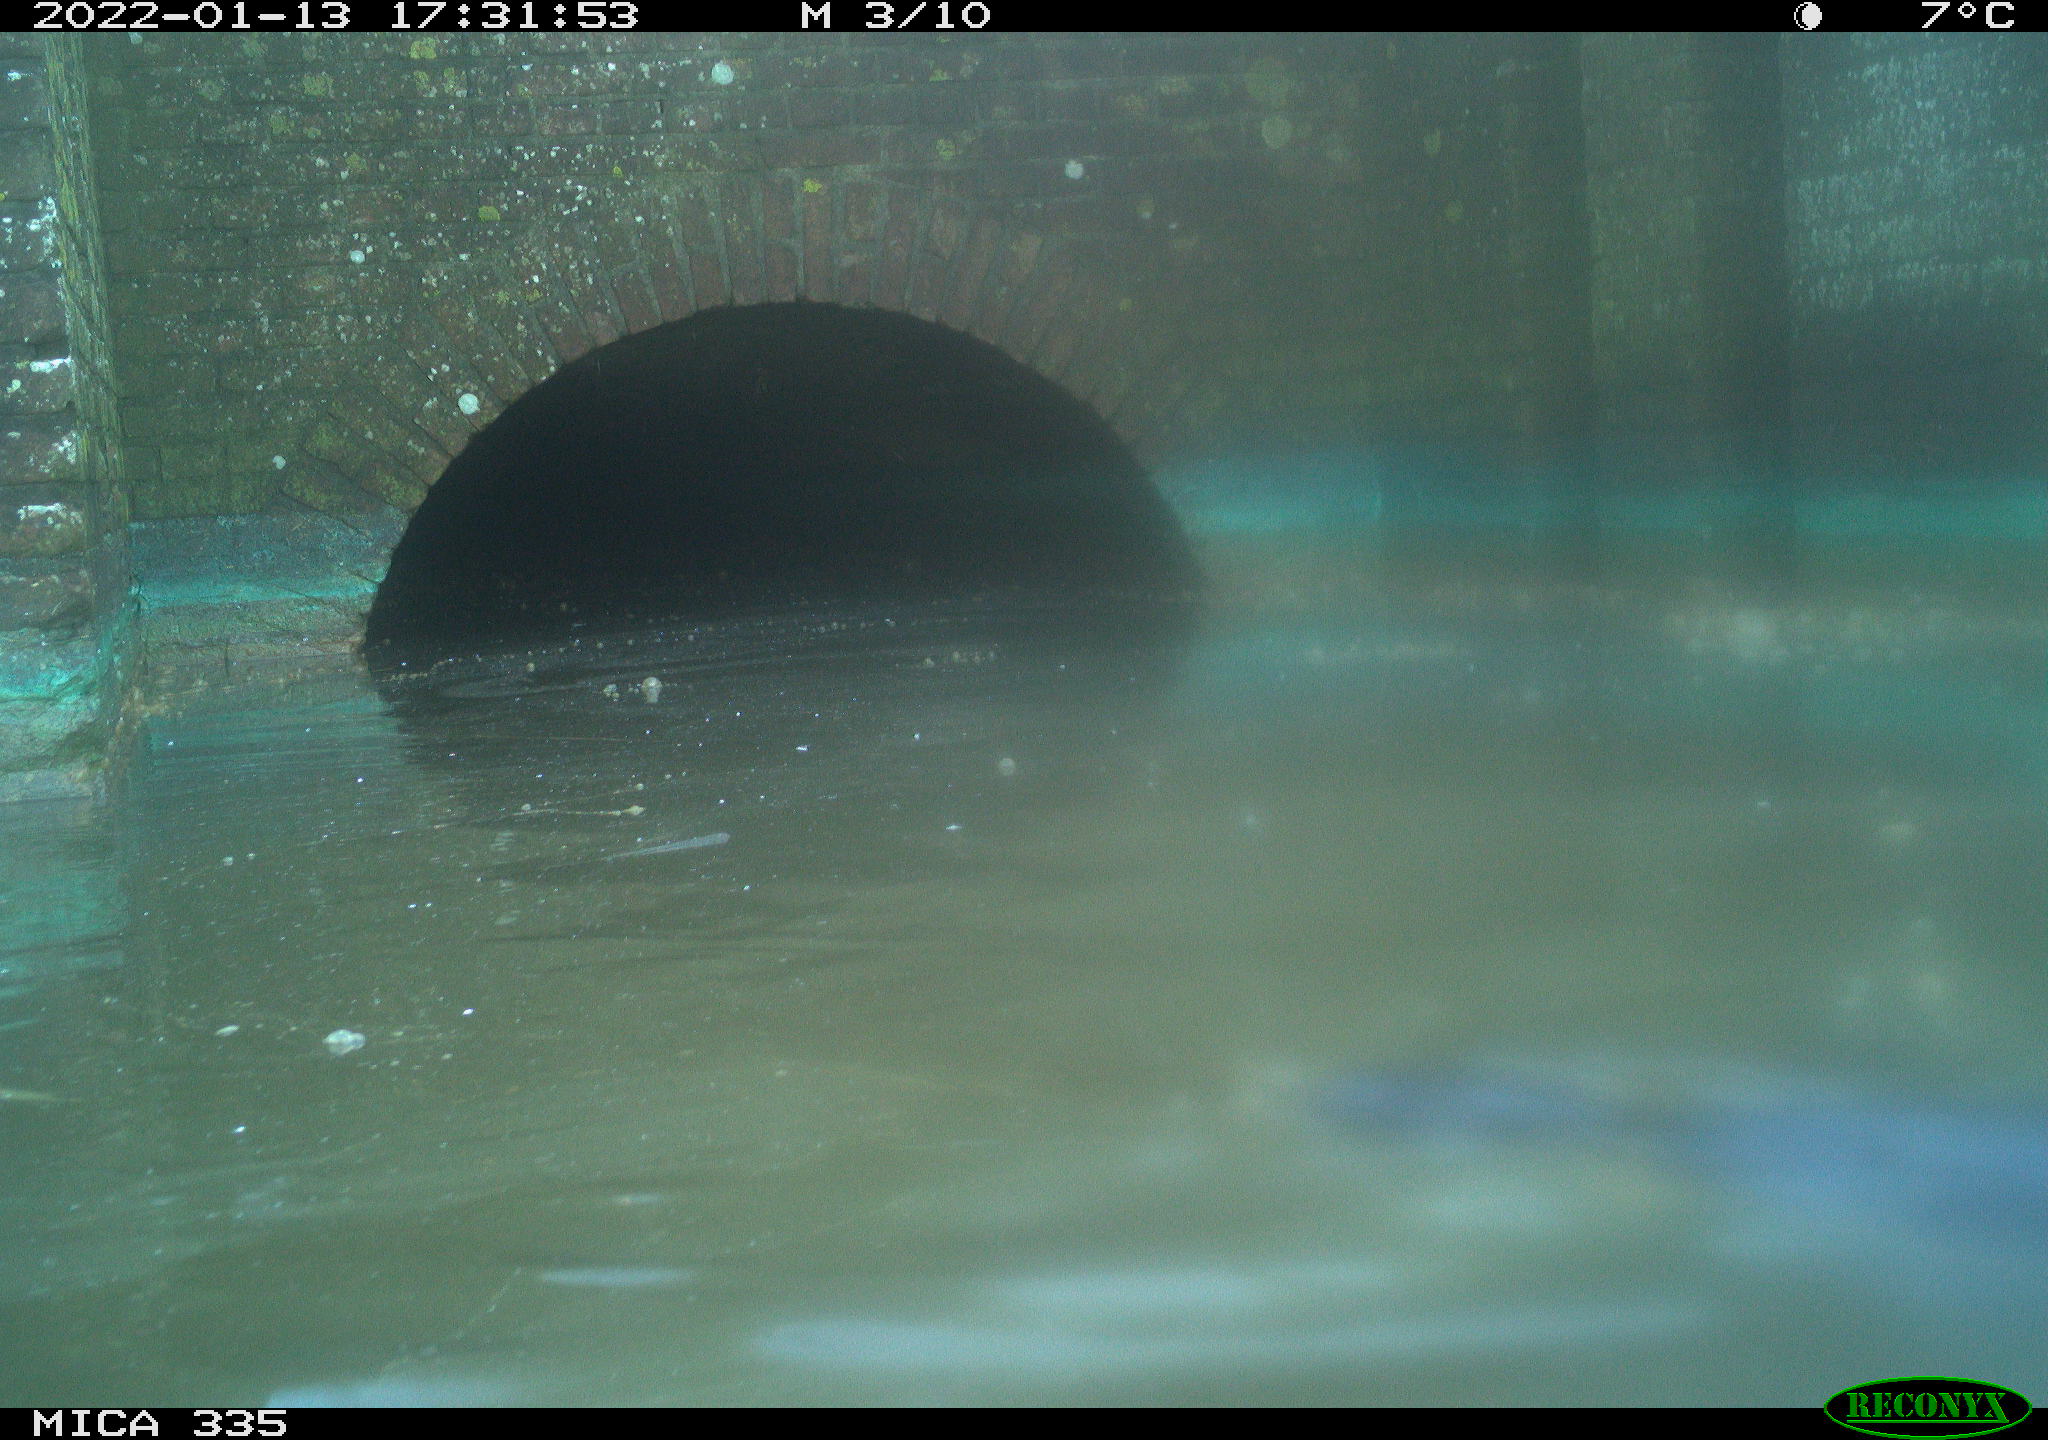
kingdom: Animalia
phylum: Chordata
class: Aves
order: Gruiformes
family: Rallidae
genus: Fulica
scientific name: Fulica atra
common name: Eurasian coot
